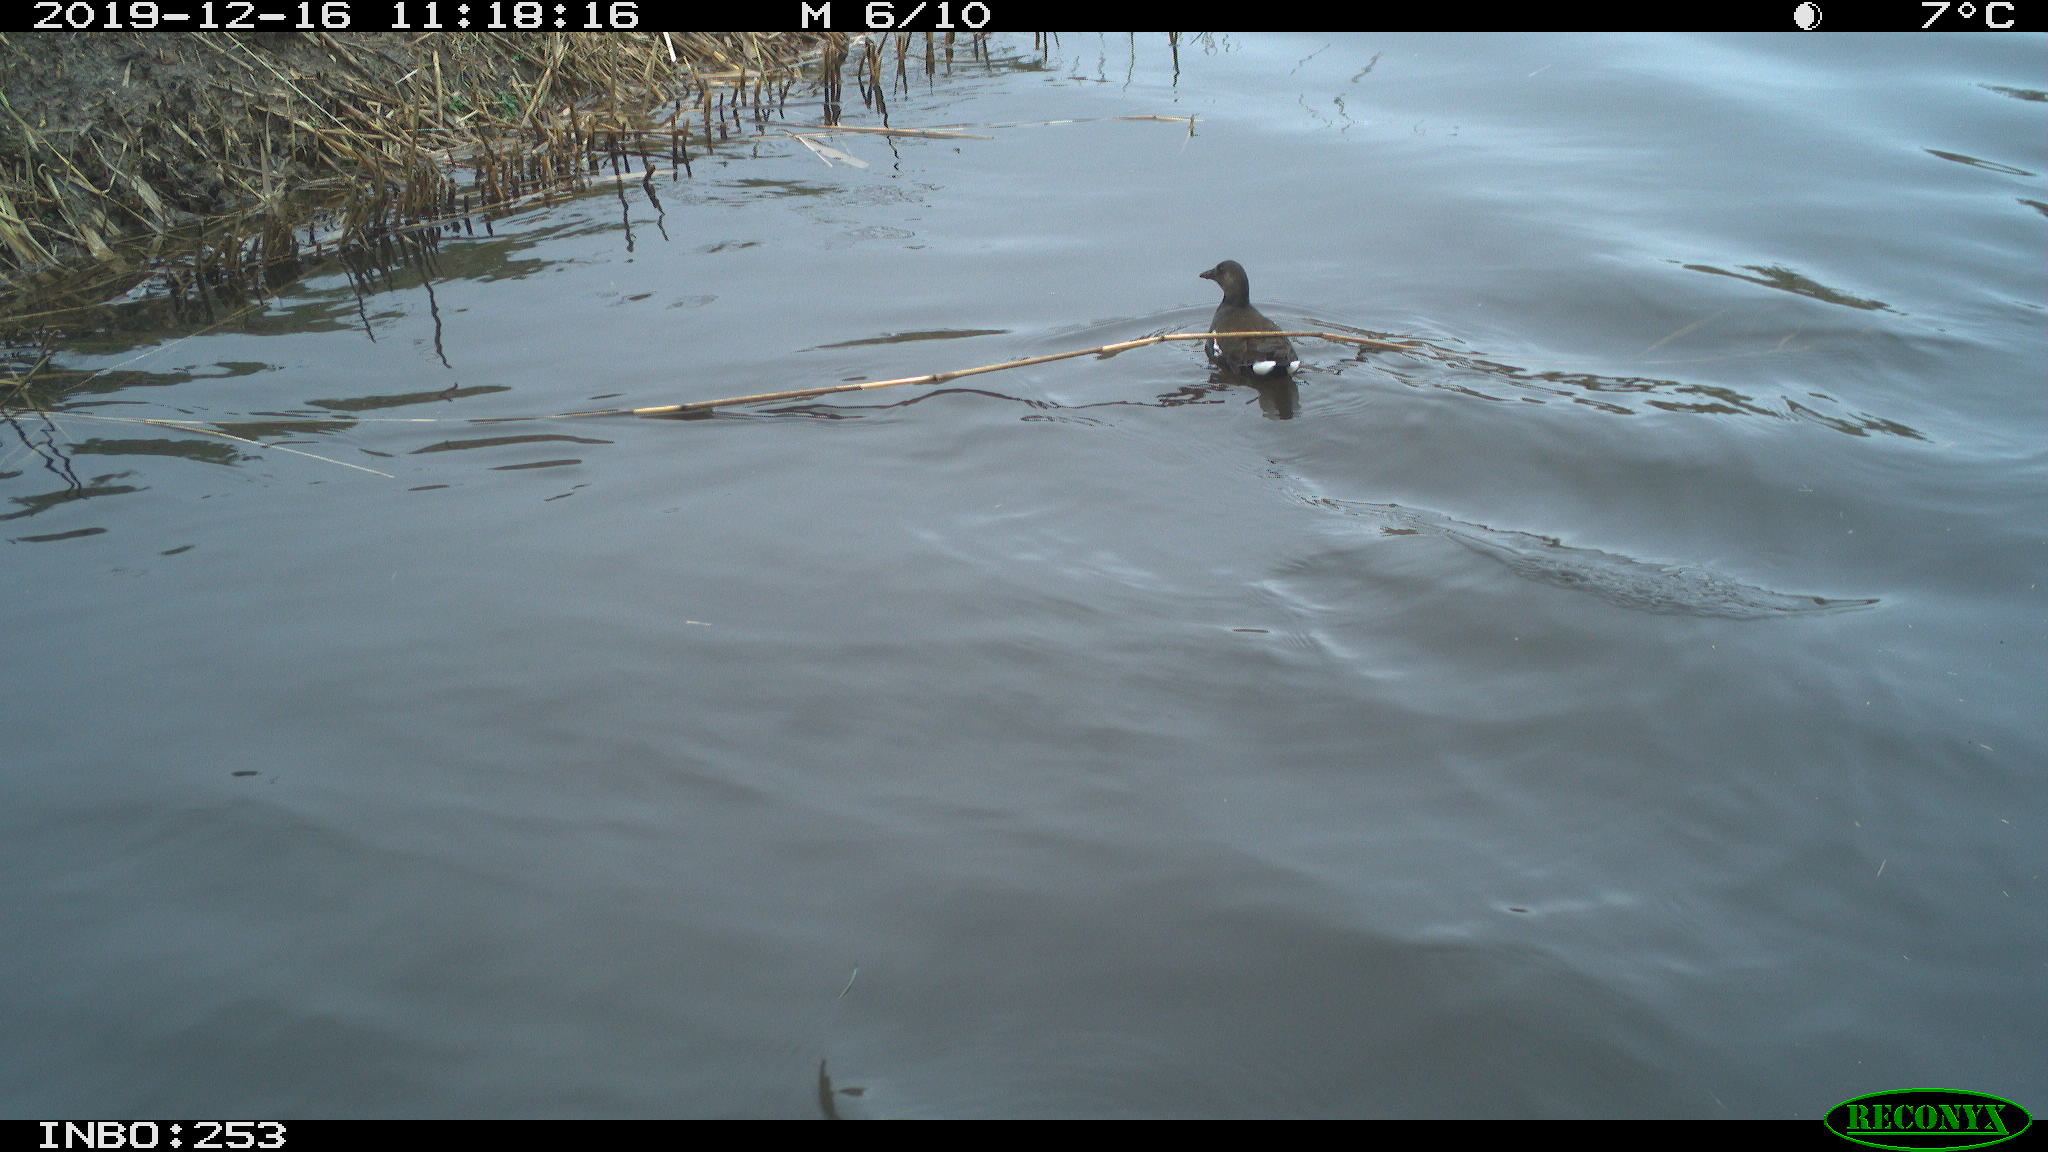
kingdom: Animalia
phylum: Chordata
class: Aves
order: Gruiformes
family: Rallidae
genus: Gallinula
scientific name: Gallinula chloropus
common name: Common moorhen
